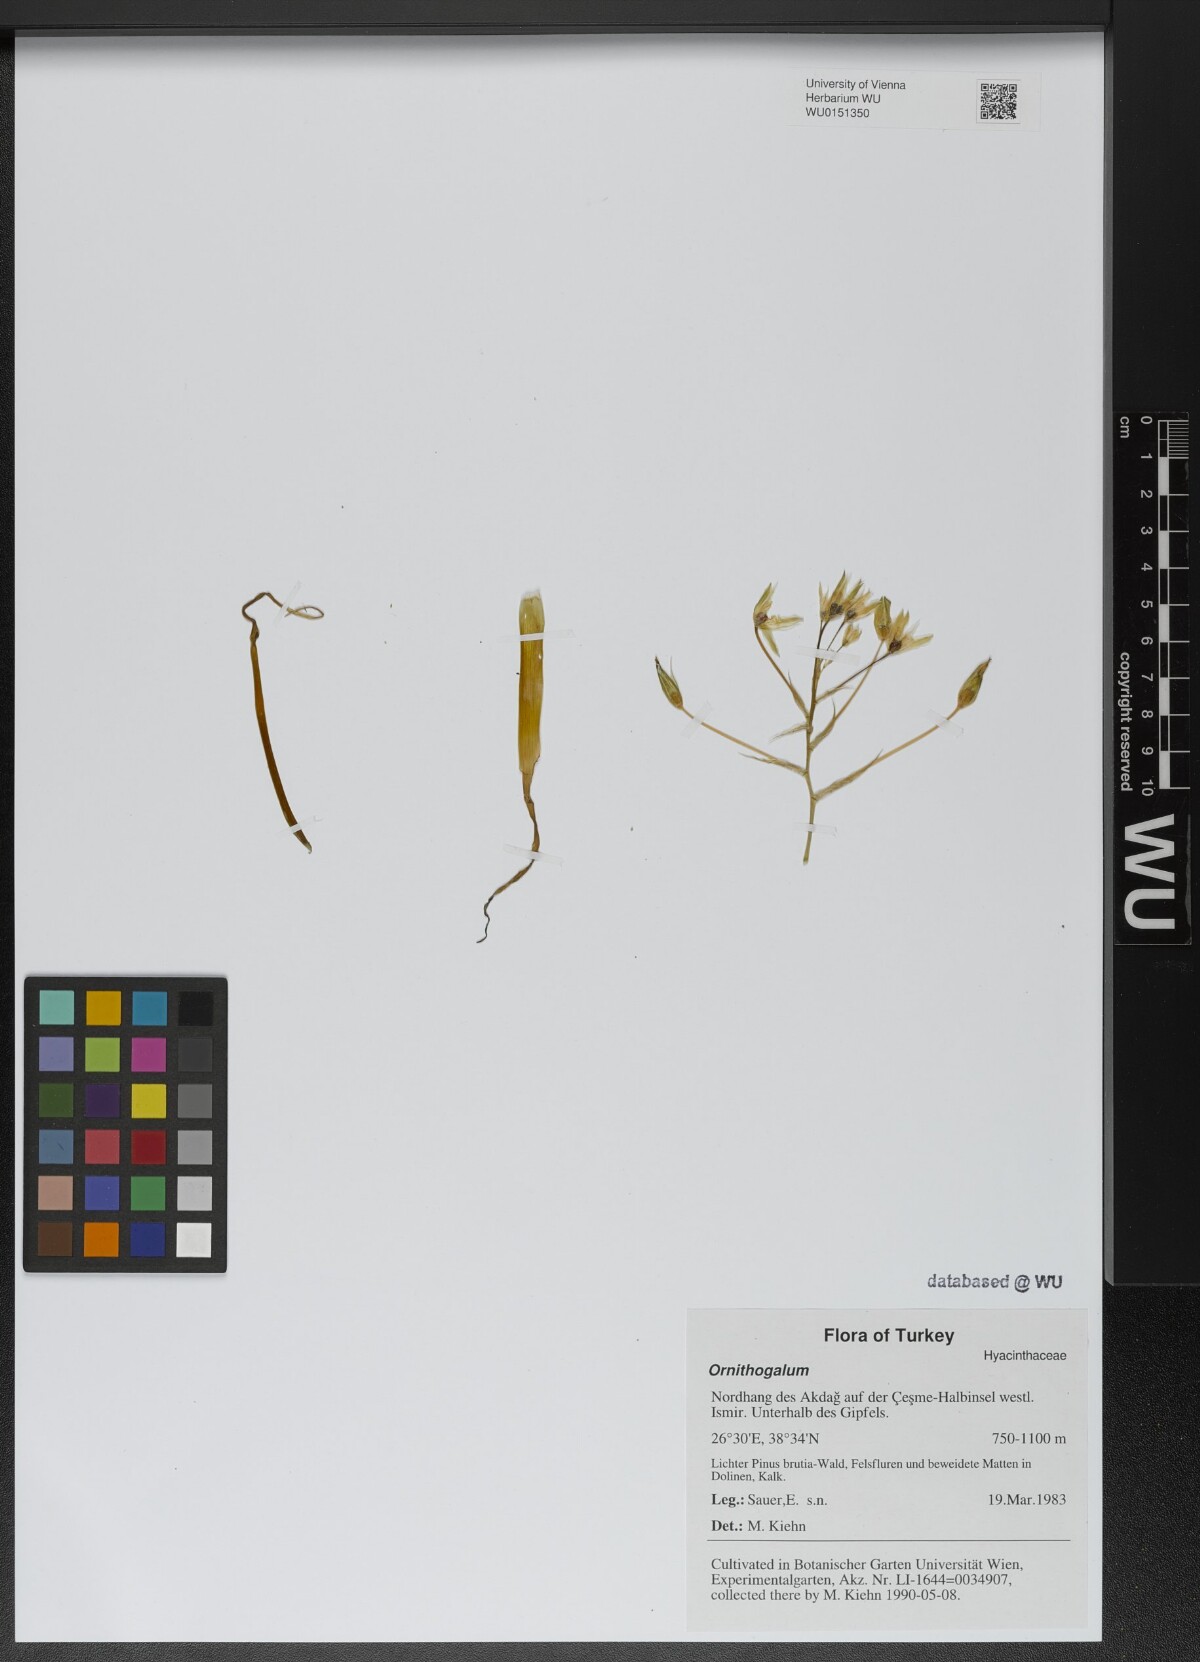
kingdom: Plantae
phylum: Tracheophyta
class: Liliopsida
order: Asparagales
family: Asparagaceae
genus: Ornithogalum
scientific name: Ornithogalum
